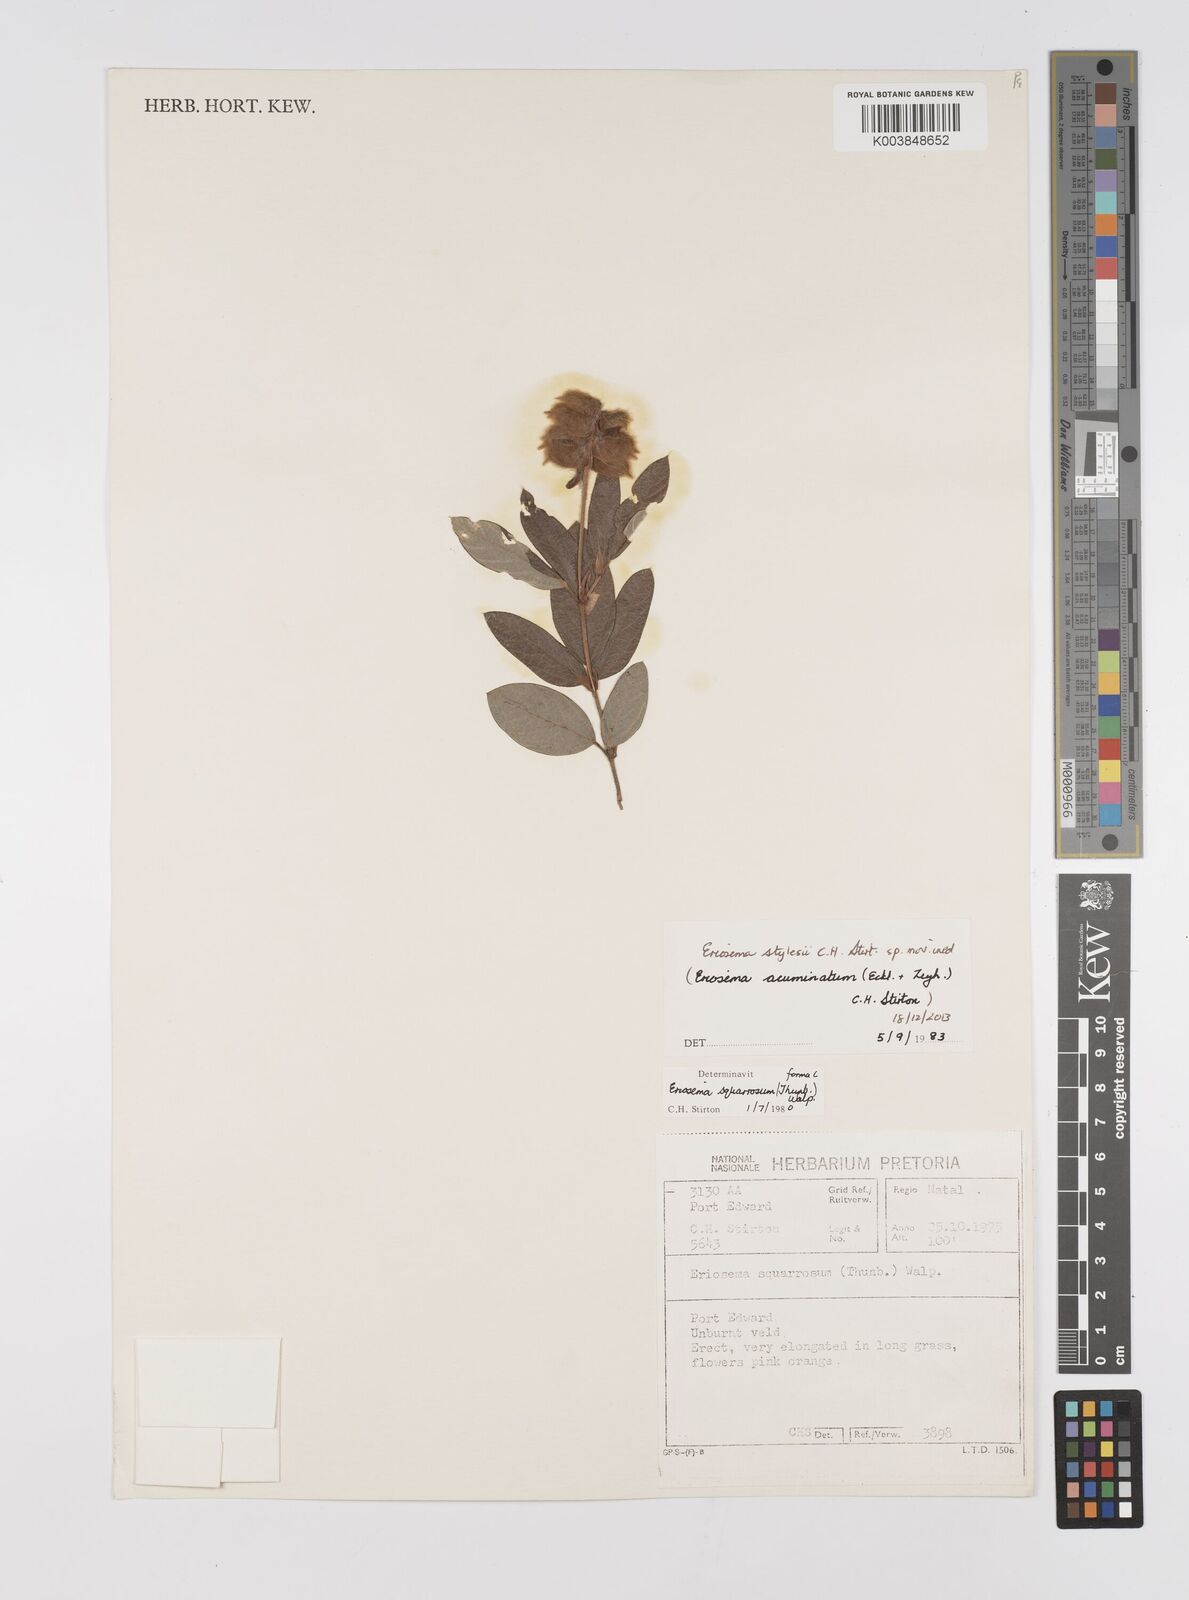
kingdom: Plantae
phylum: Tracheophyta
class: Magnoliopsida
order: Fabales
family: Fabaceae
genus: Eriosema
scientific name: Eriosema
